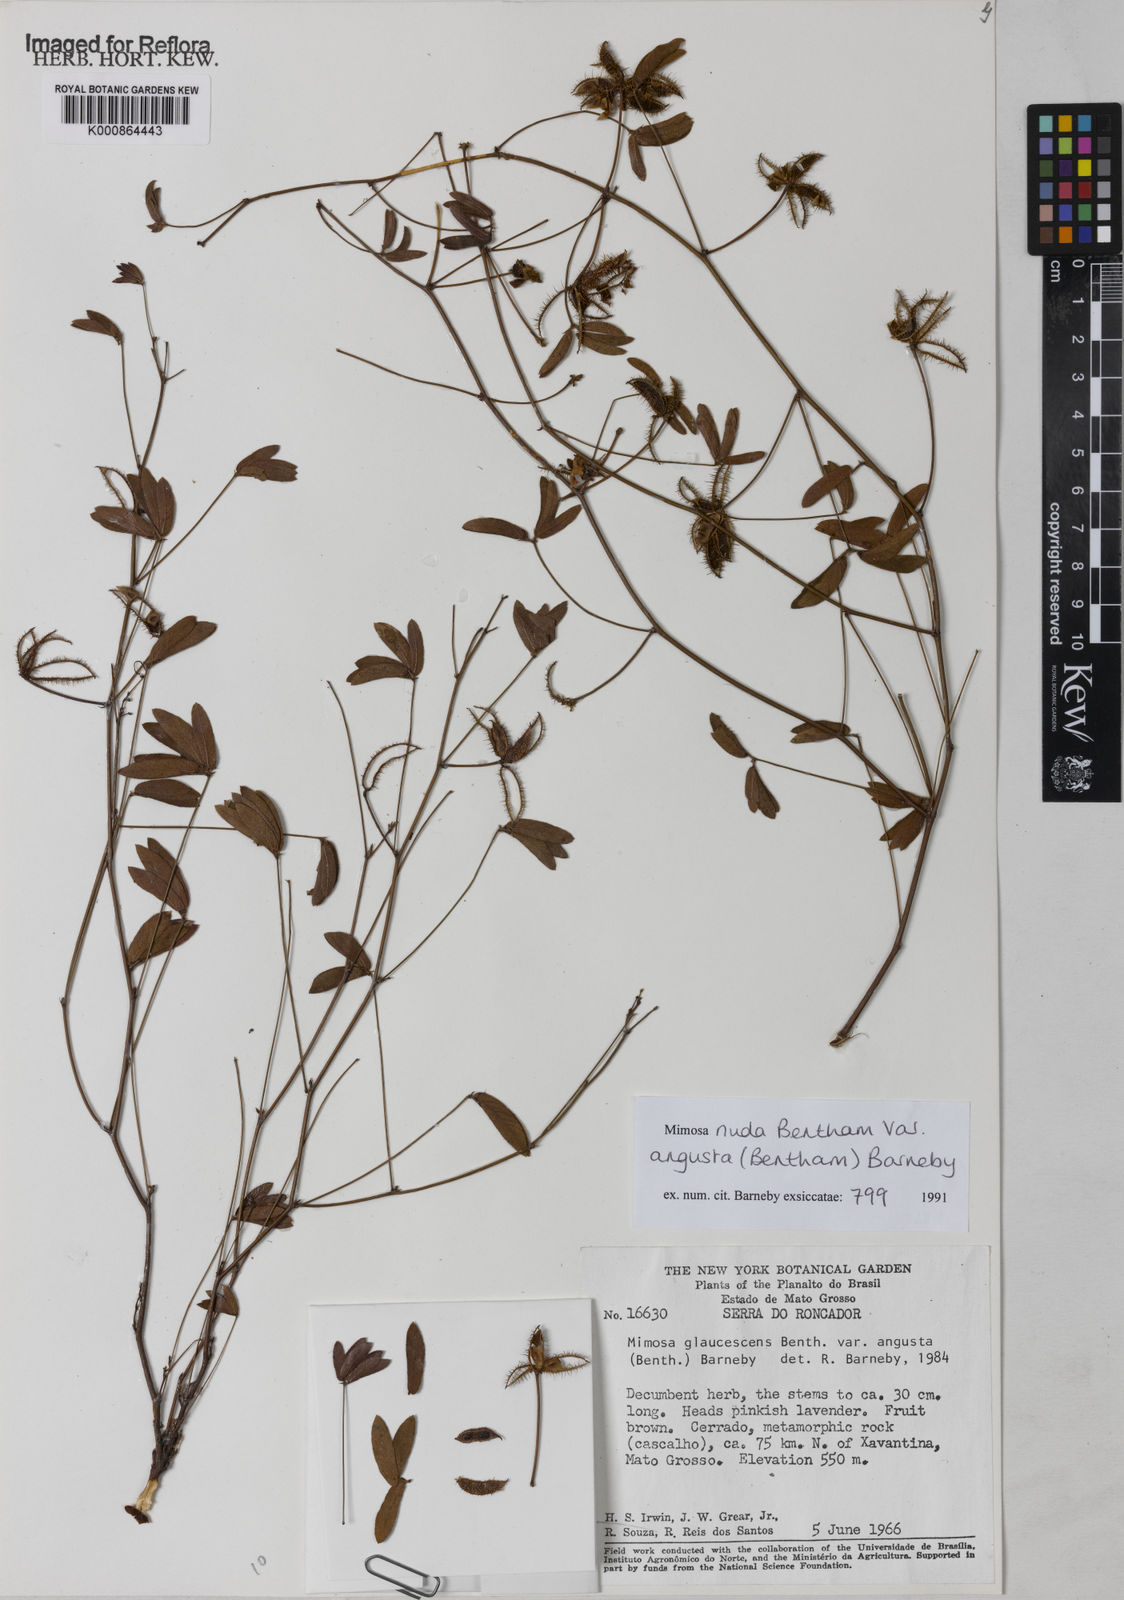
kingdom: Plantae
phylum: Tracheophyta
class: Magnoliopsida
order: Fabales
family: Fabaceae
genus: Mimosa
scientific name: Mimosa debilis
